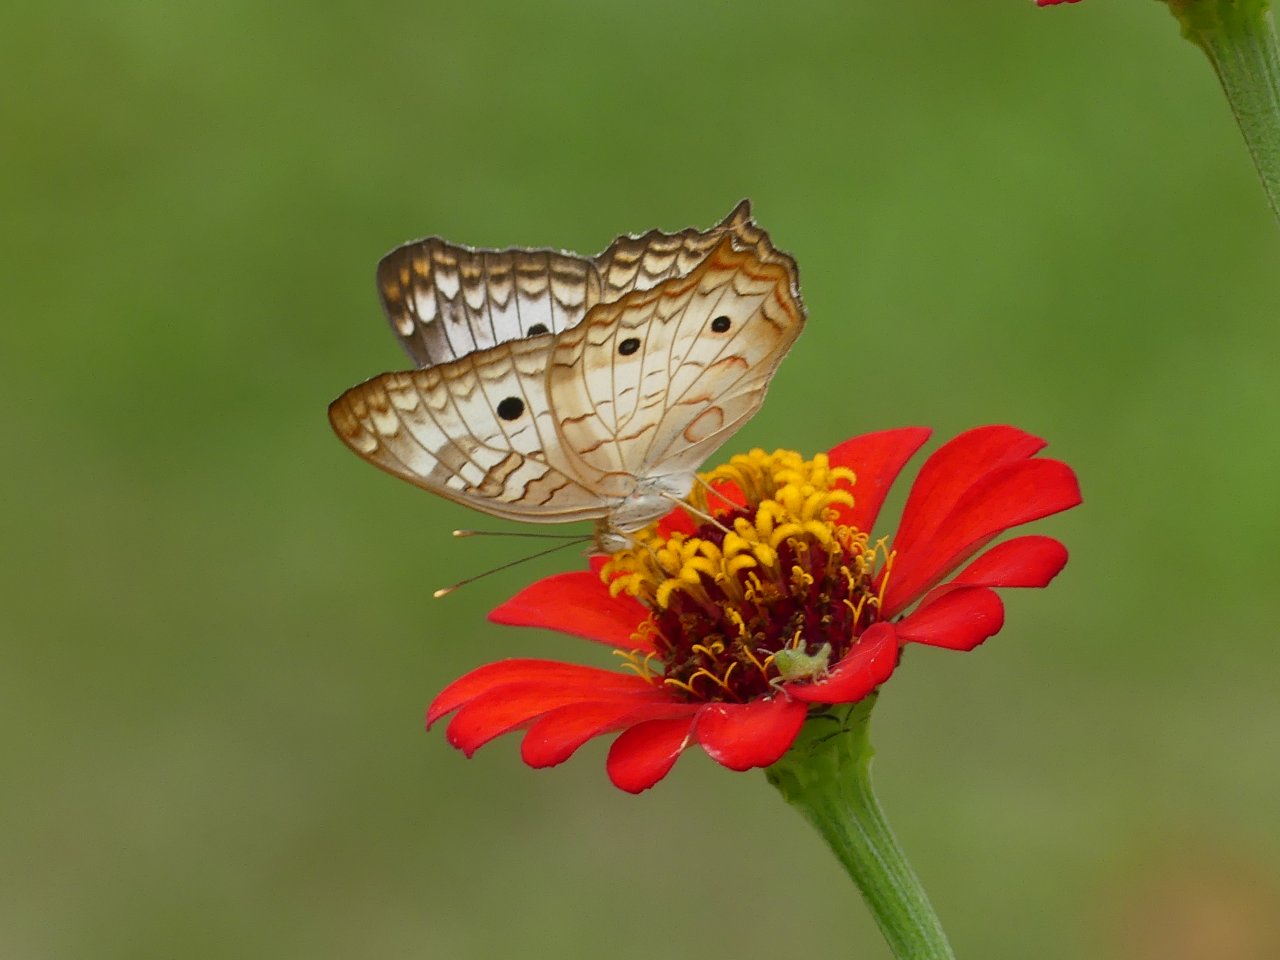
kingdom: Animalia
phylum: Arthropoda
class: Insecta
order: Lepidoptera
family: Nymphalidae
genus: Anartia
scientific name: Anartia jatrophae
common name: White Peacock
